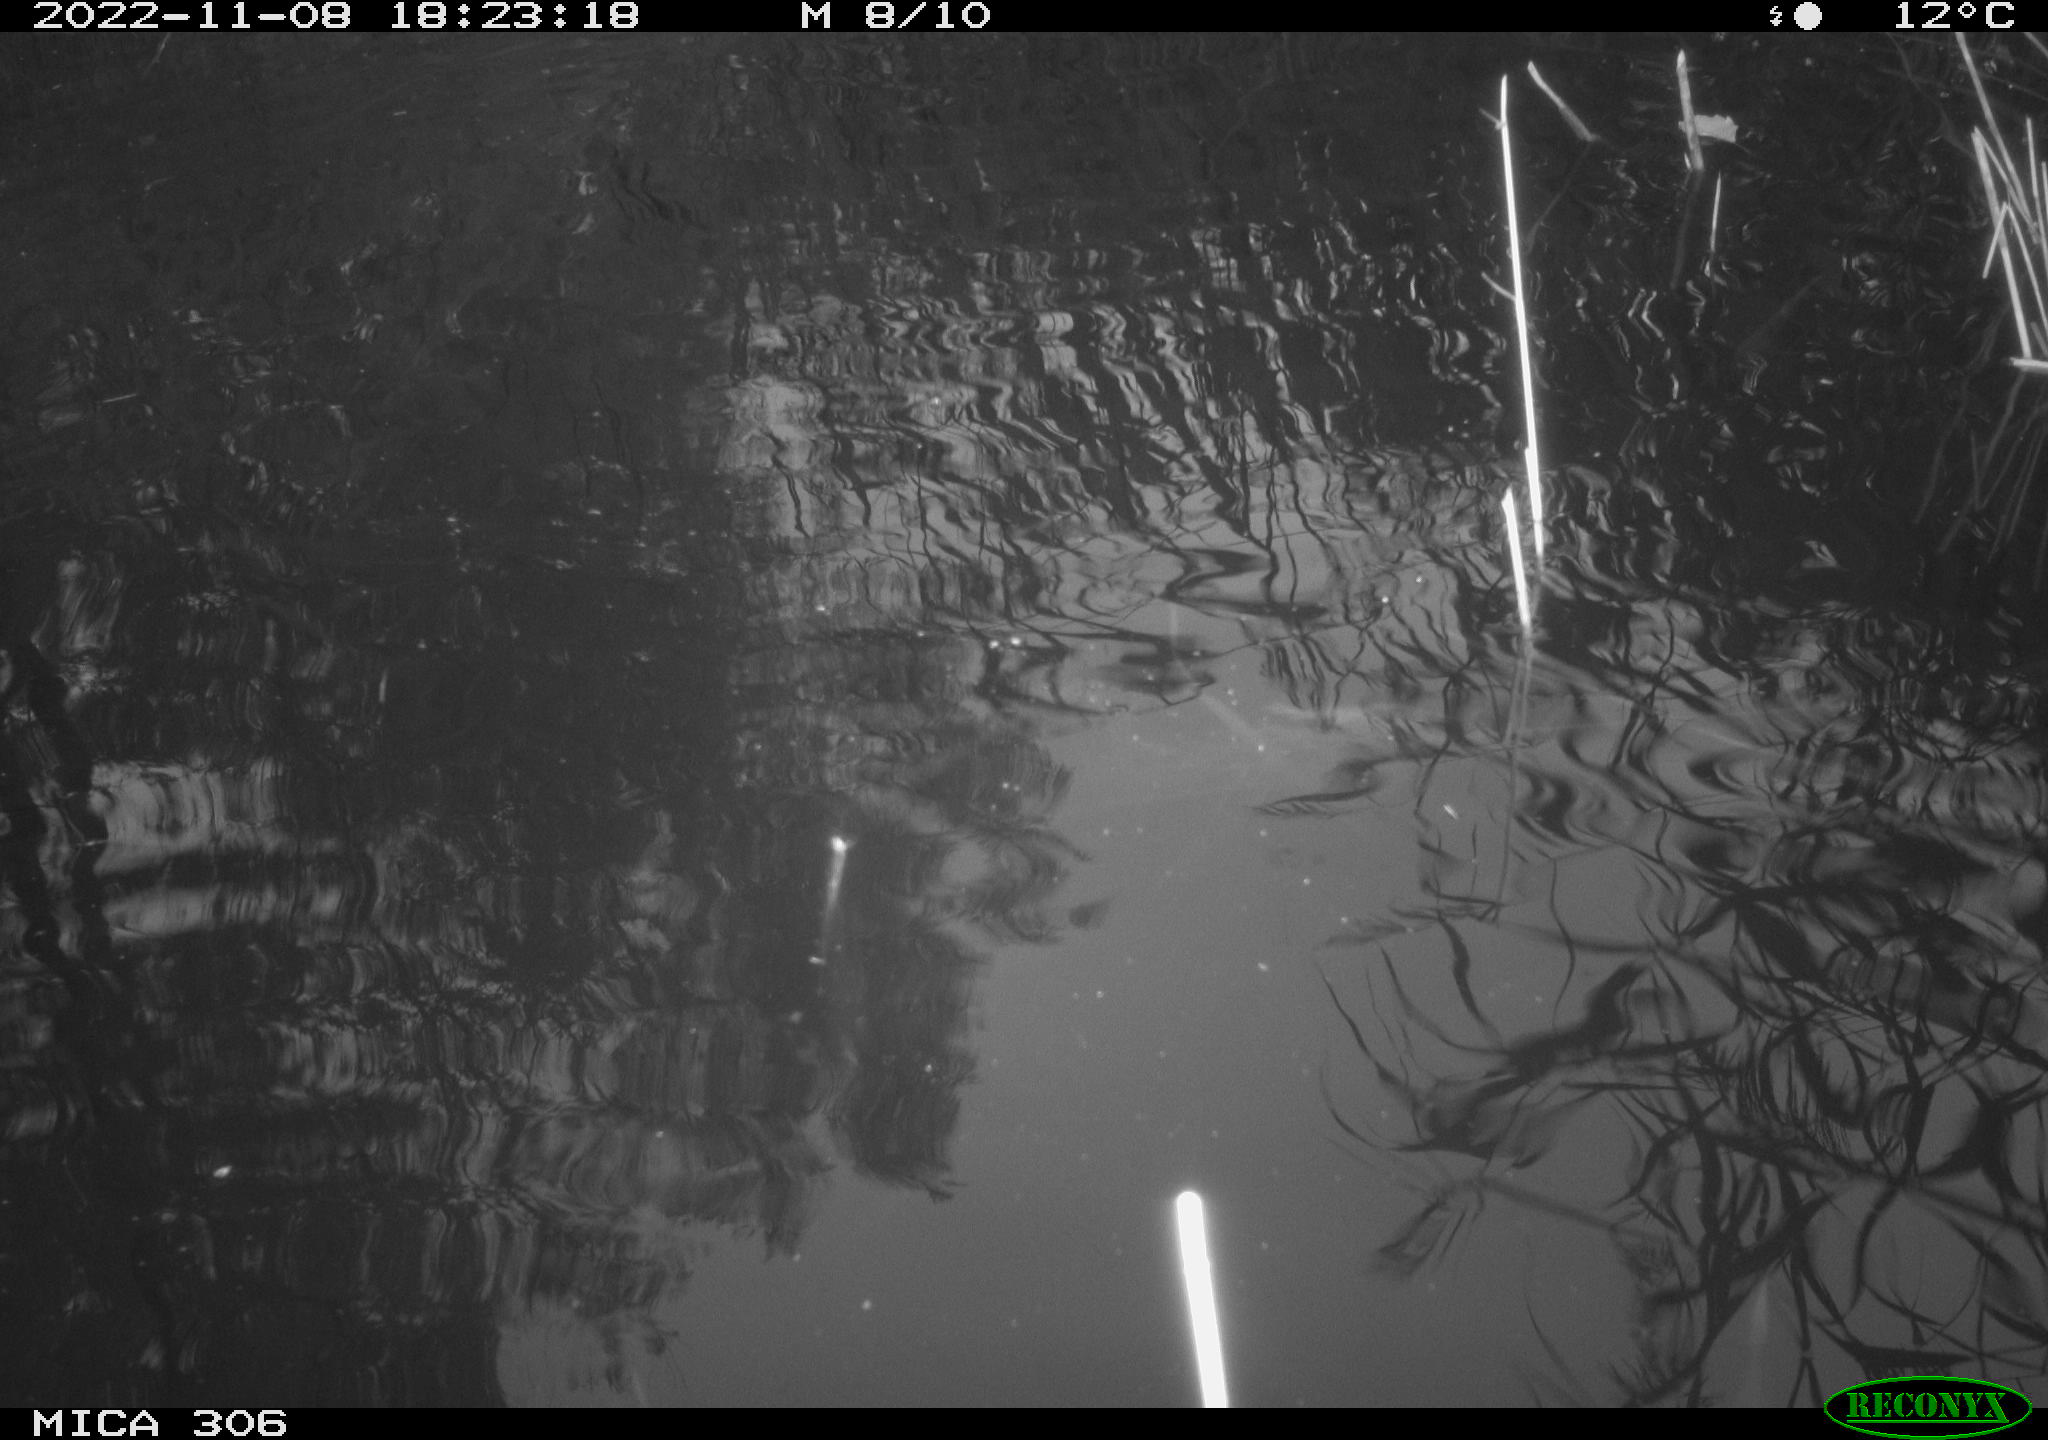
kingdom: Animalia
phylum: Chordata
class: Mammalia
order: Rodentia
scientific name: Rodentia
